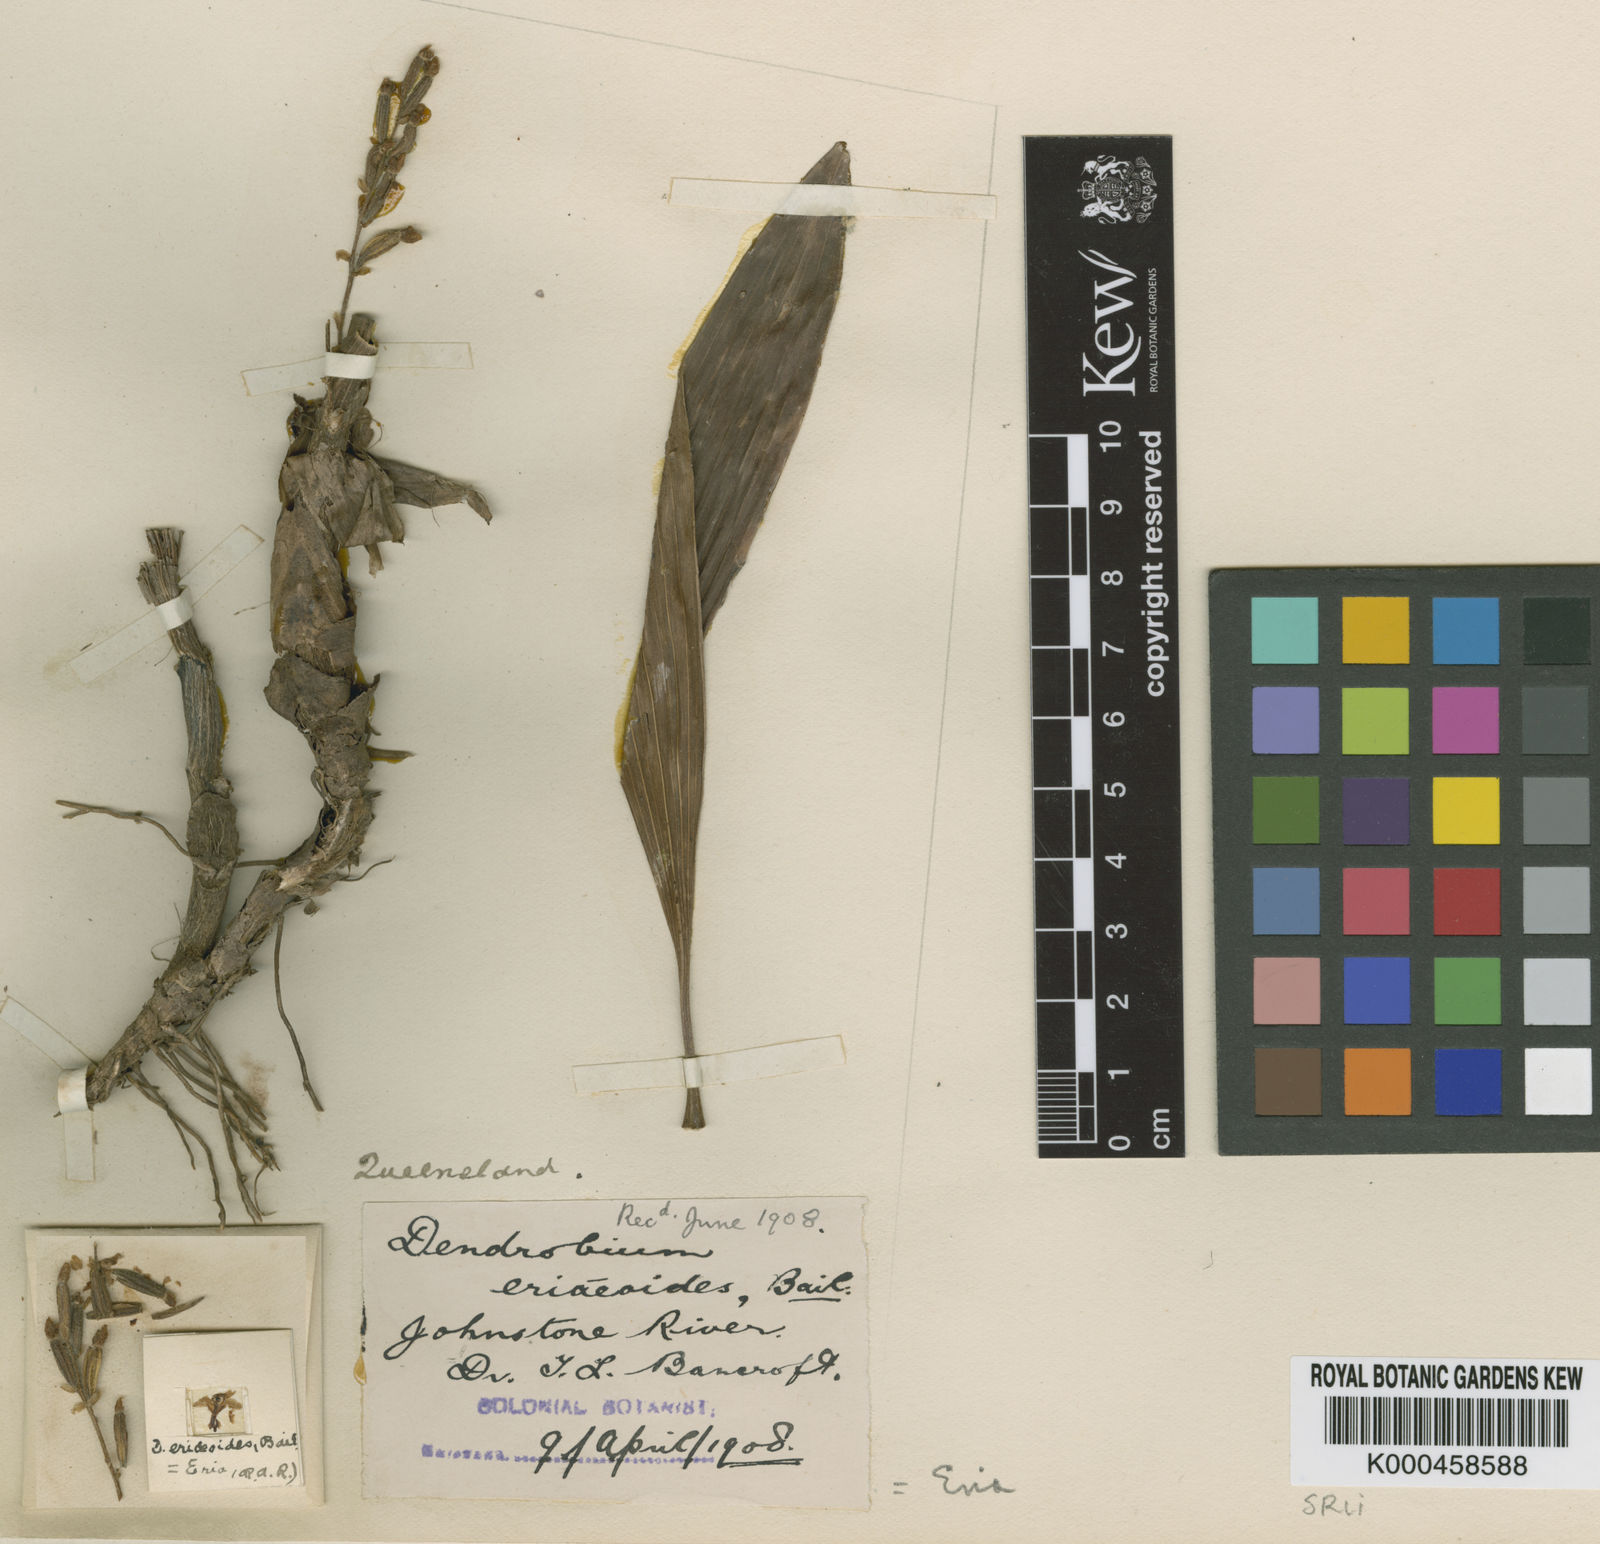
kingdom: Plantae
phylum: Tracheophyta
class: Liliopsida
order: Asparagales
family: Orchidaceae
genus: Bryobium
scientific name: Bryobium eriaeoides
